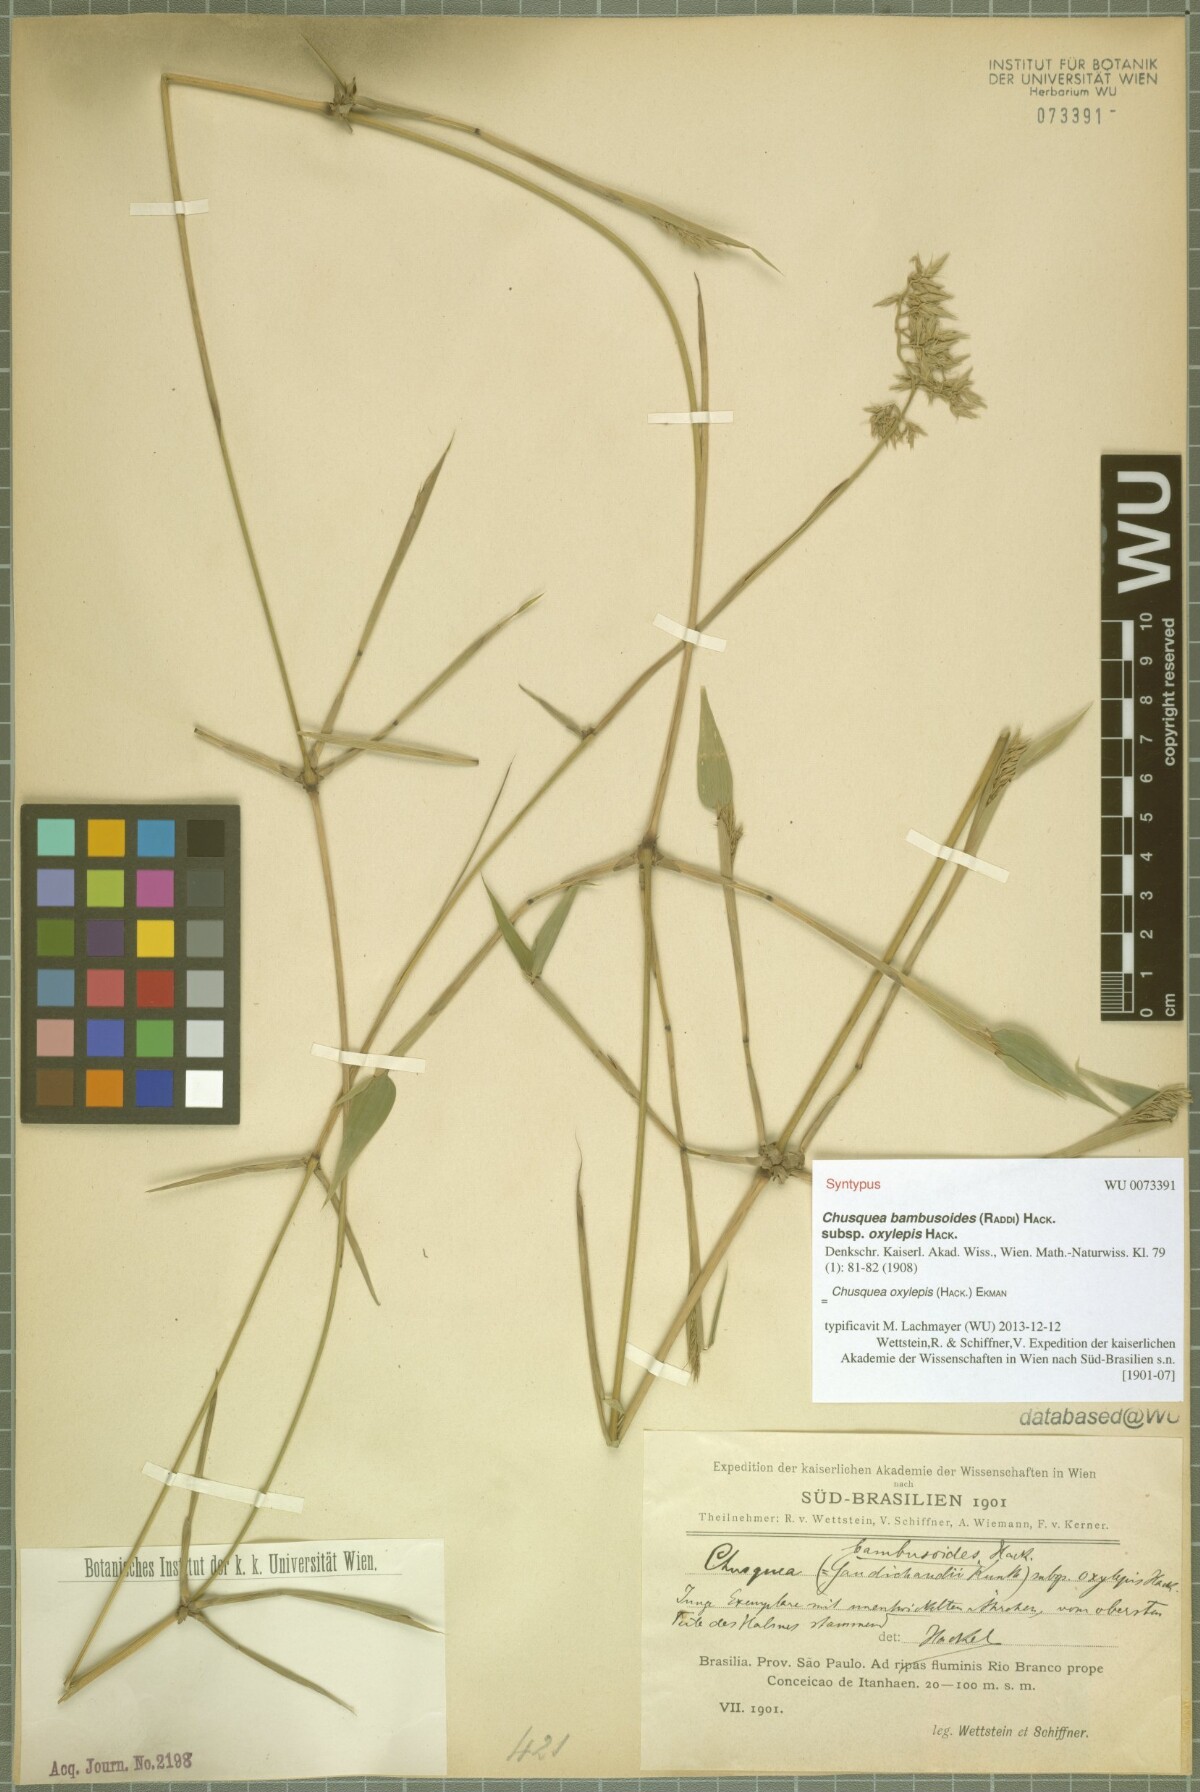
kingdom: Plantae
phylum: Tracheophyta
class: Liliopsida
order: Poales
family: Poaceae
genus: Chusquea
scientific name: Chusquea oxylepis
